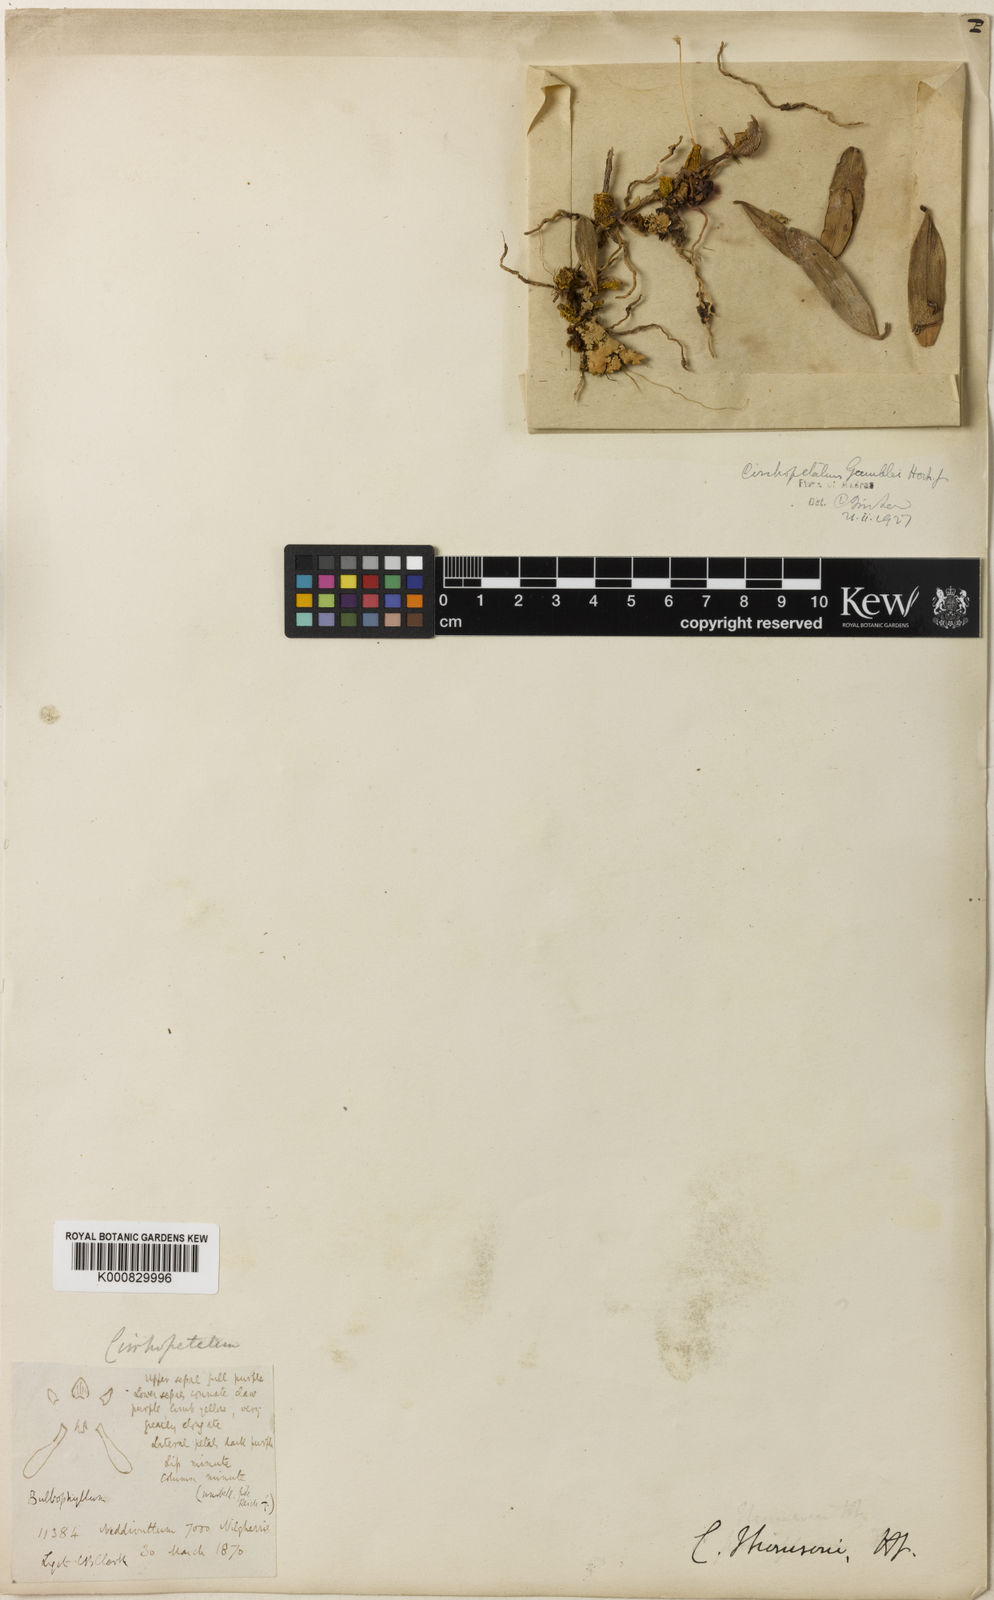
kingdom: Plantae
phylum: Tracheophyta
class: Liliopsida
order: Asparagales
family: Orchidaceae
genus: Bulbophyllum
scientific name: Bulbophyllum fischeri
